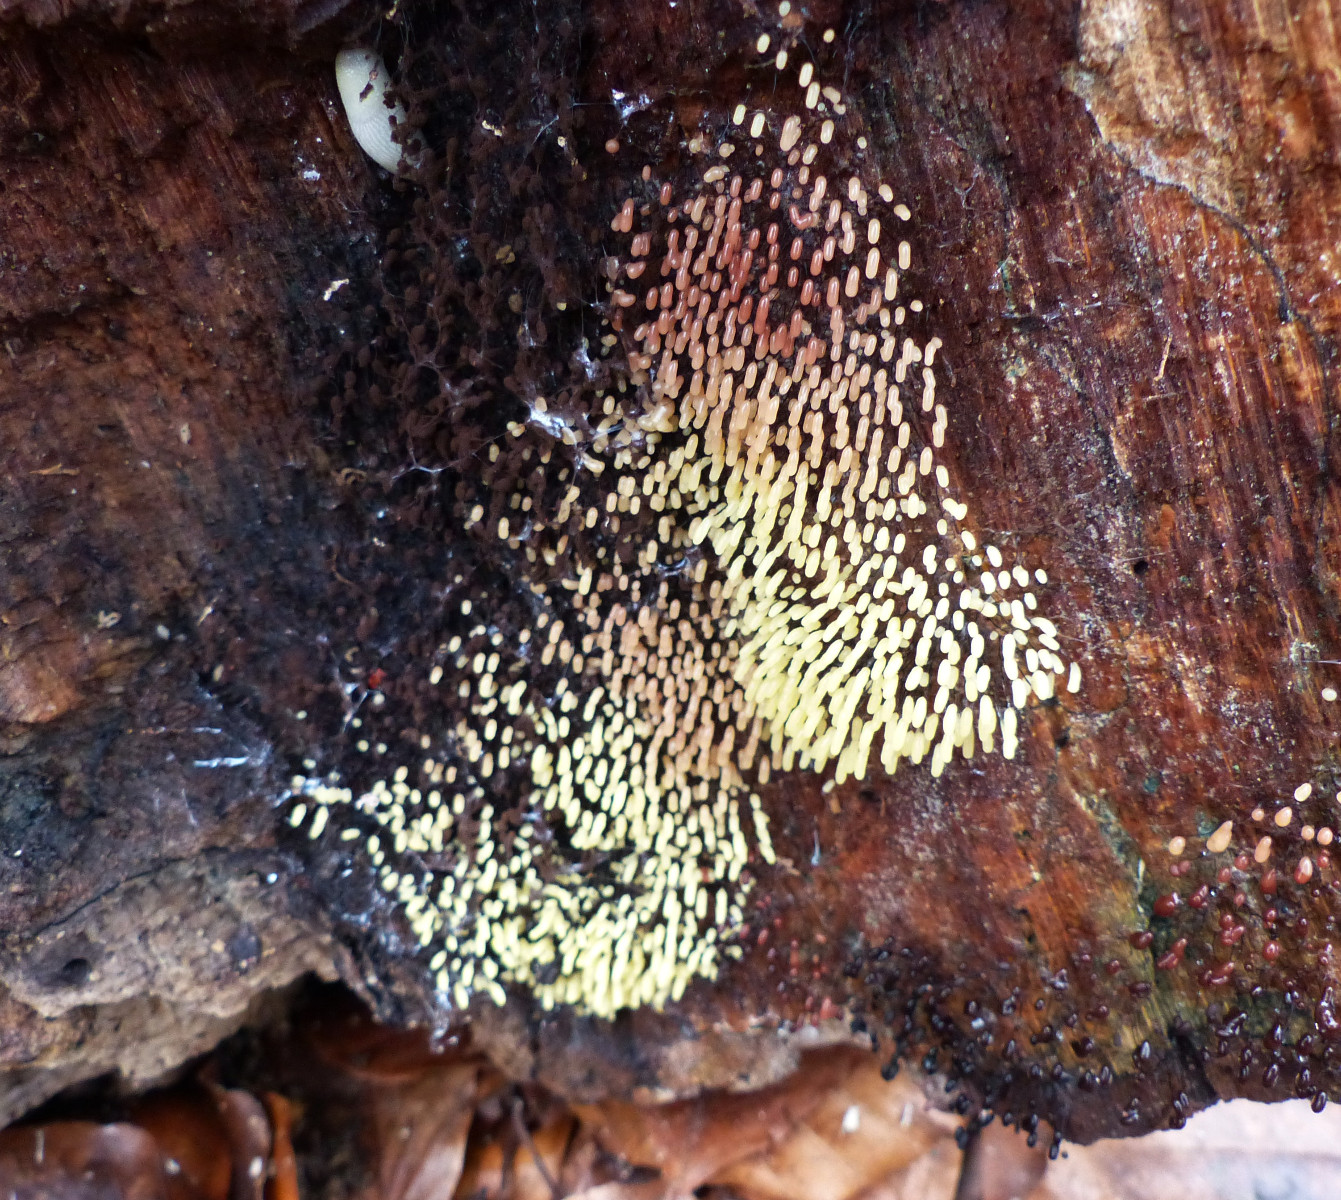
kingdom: Protozoa
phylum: Mycetozoa
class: Myxomycetes
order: Stemonitidales
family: Stemonitidaceae
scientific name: Stemonitidaceae
